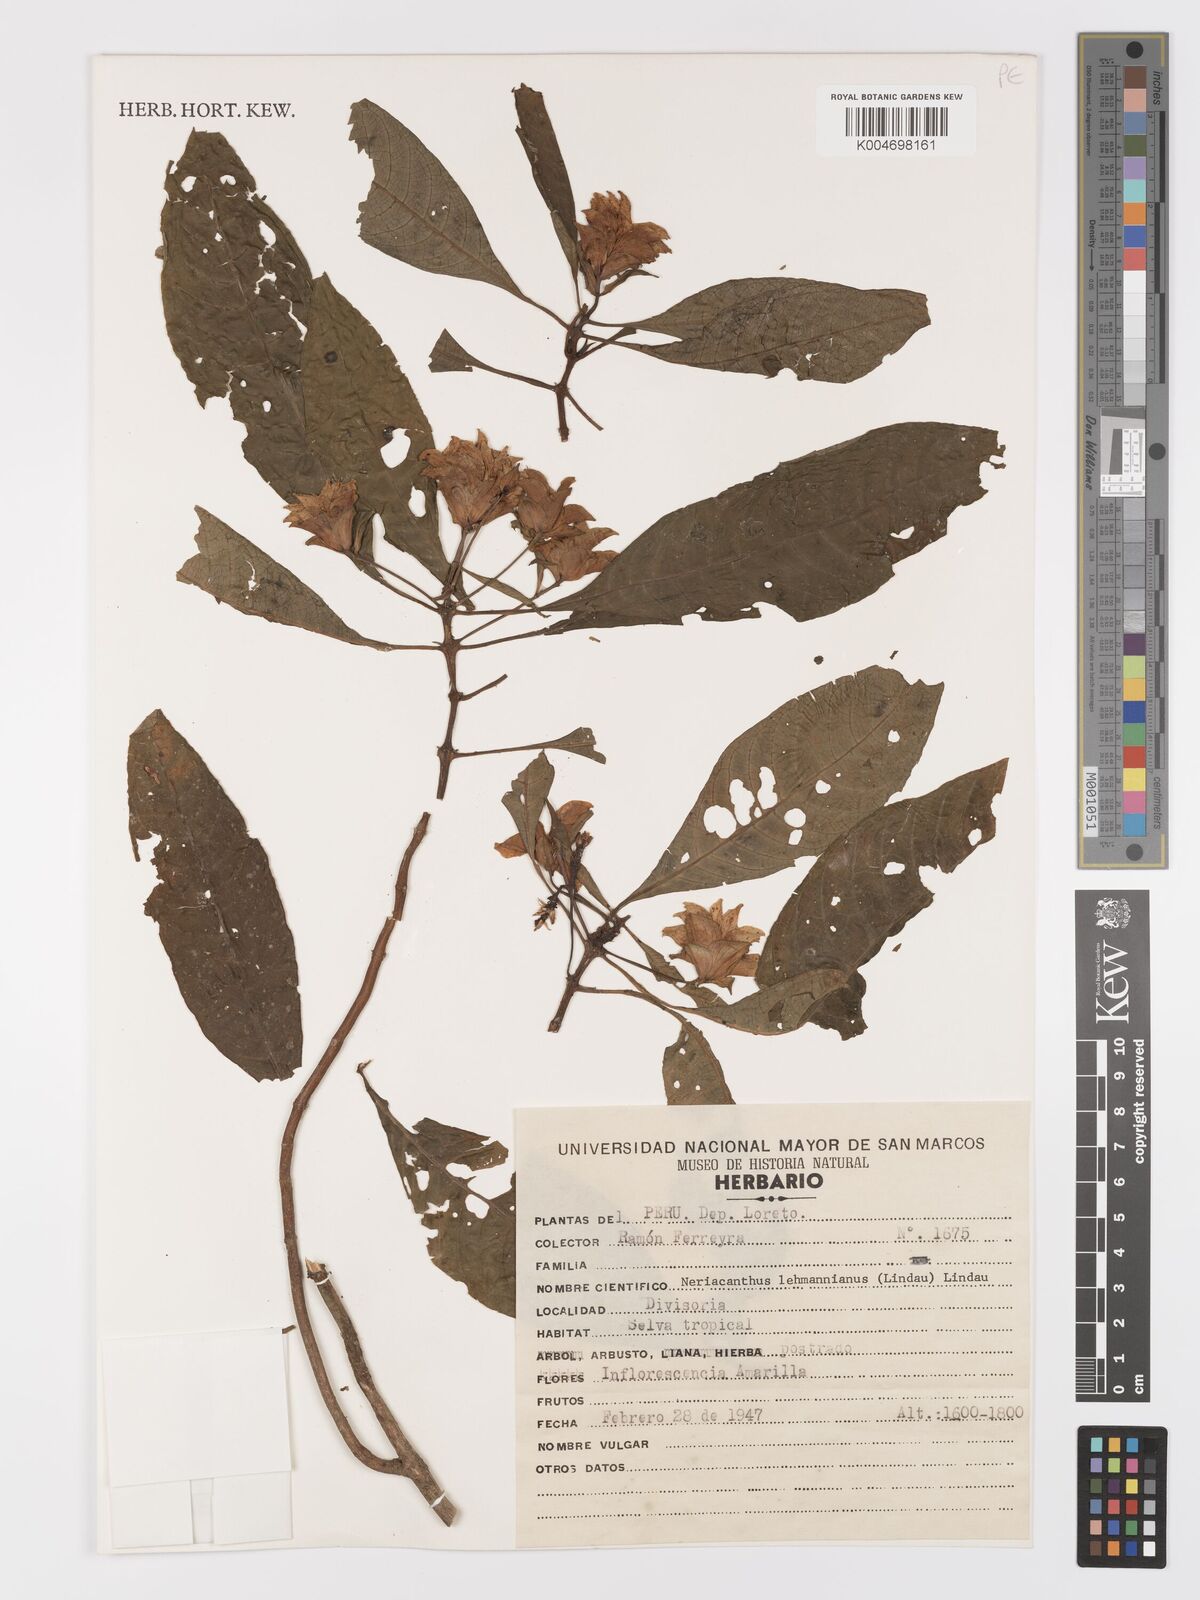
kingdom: Plantae
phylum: Tracheophyta
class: Magnoliopsida
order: Lamiales
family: Acanthaceae
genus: Neriacanthus
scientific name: Neriacanthus lehmannianus
